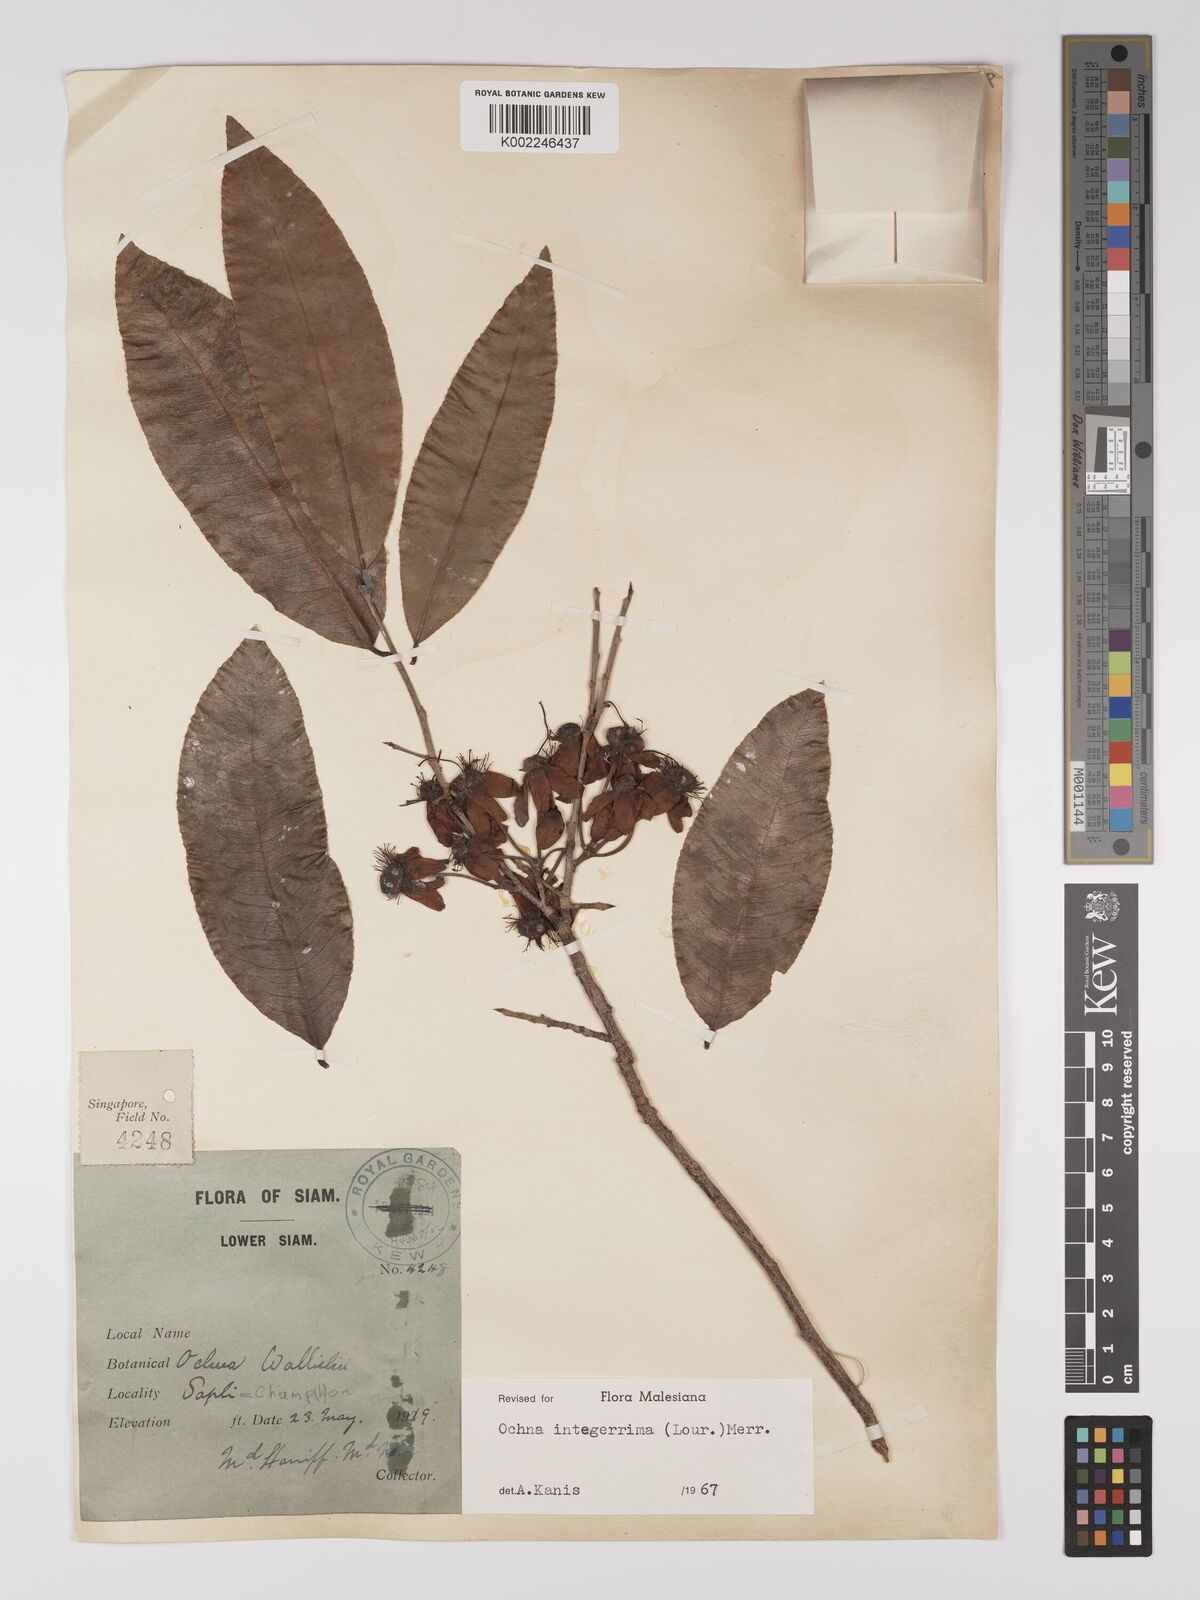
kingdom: Plantae
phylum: Tracheophyta
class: Magnoliopsida
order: Malpighiales
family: Ochnaceae
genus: Ochna
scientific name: Ochna integerrima
